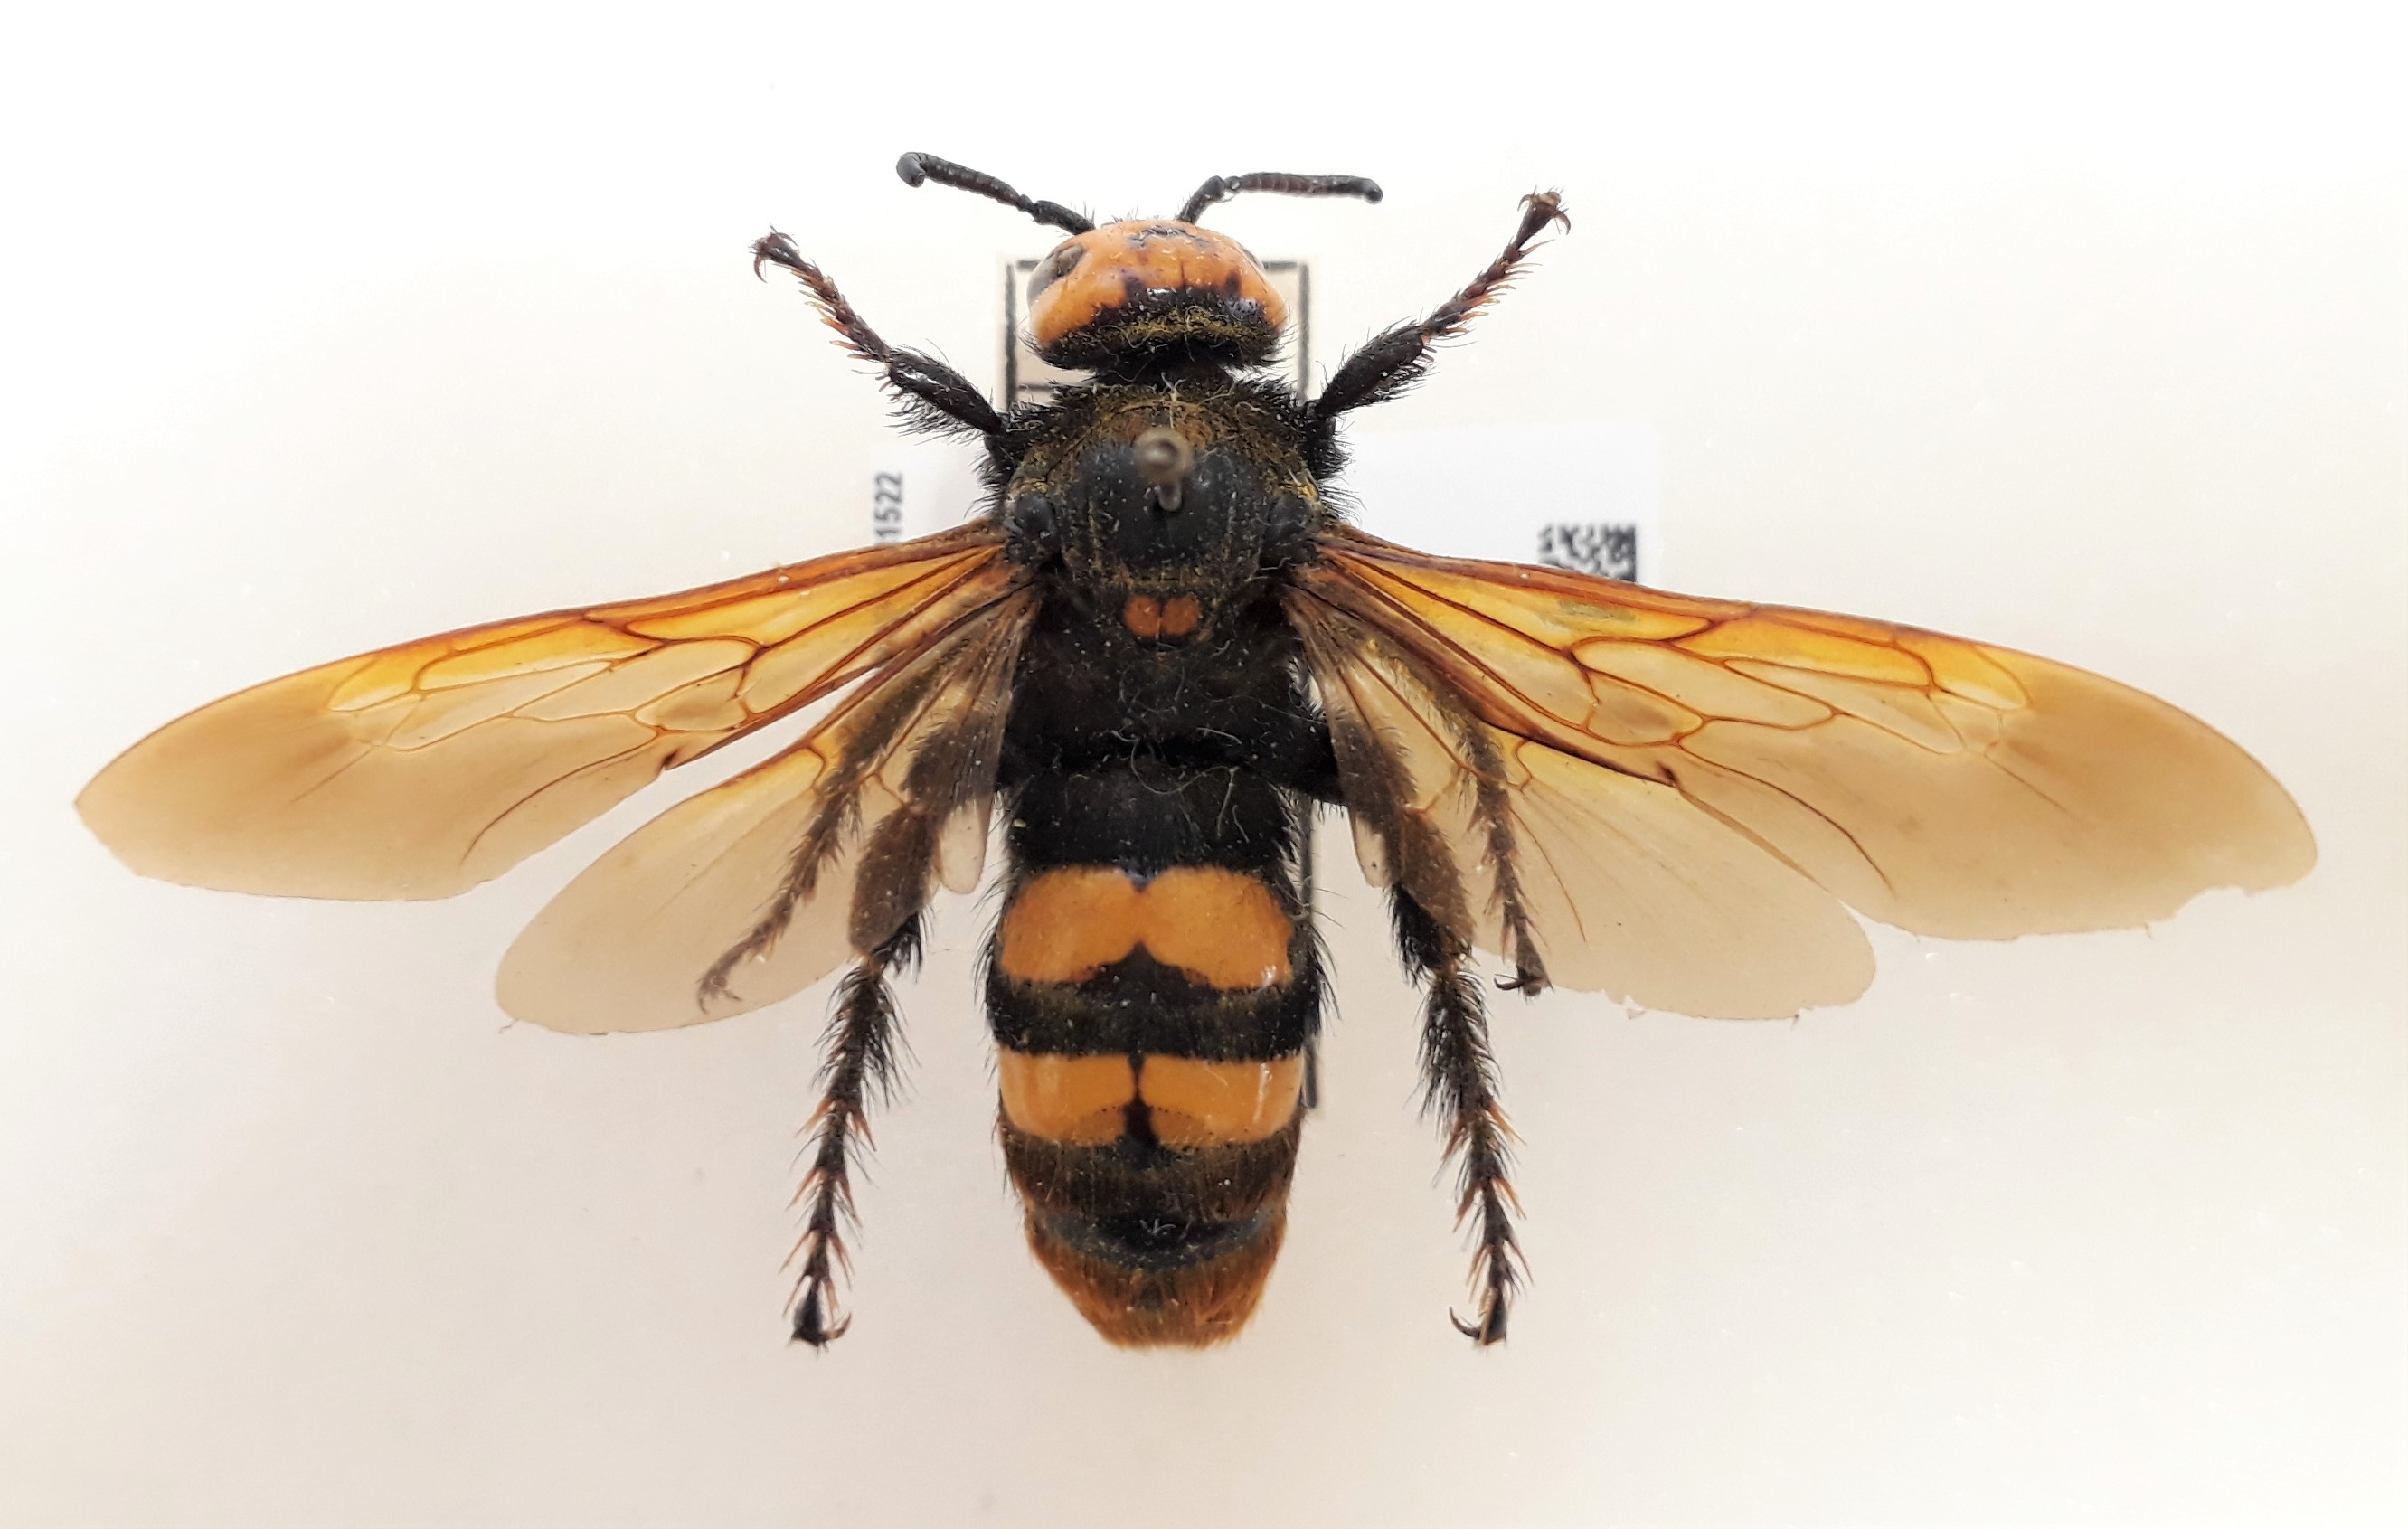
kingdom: Animalia
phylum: Arthropoda
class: Insecta
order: Hymenoptera
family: Scoliidae
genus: Megascolia
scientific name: Megascolia maculata
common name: Mammoth wasp
